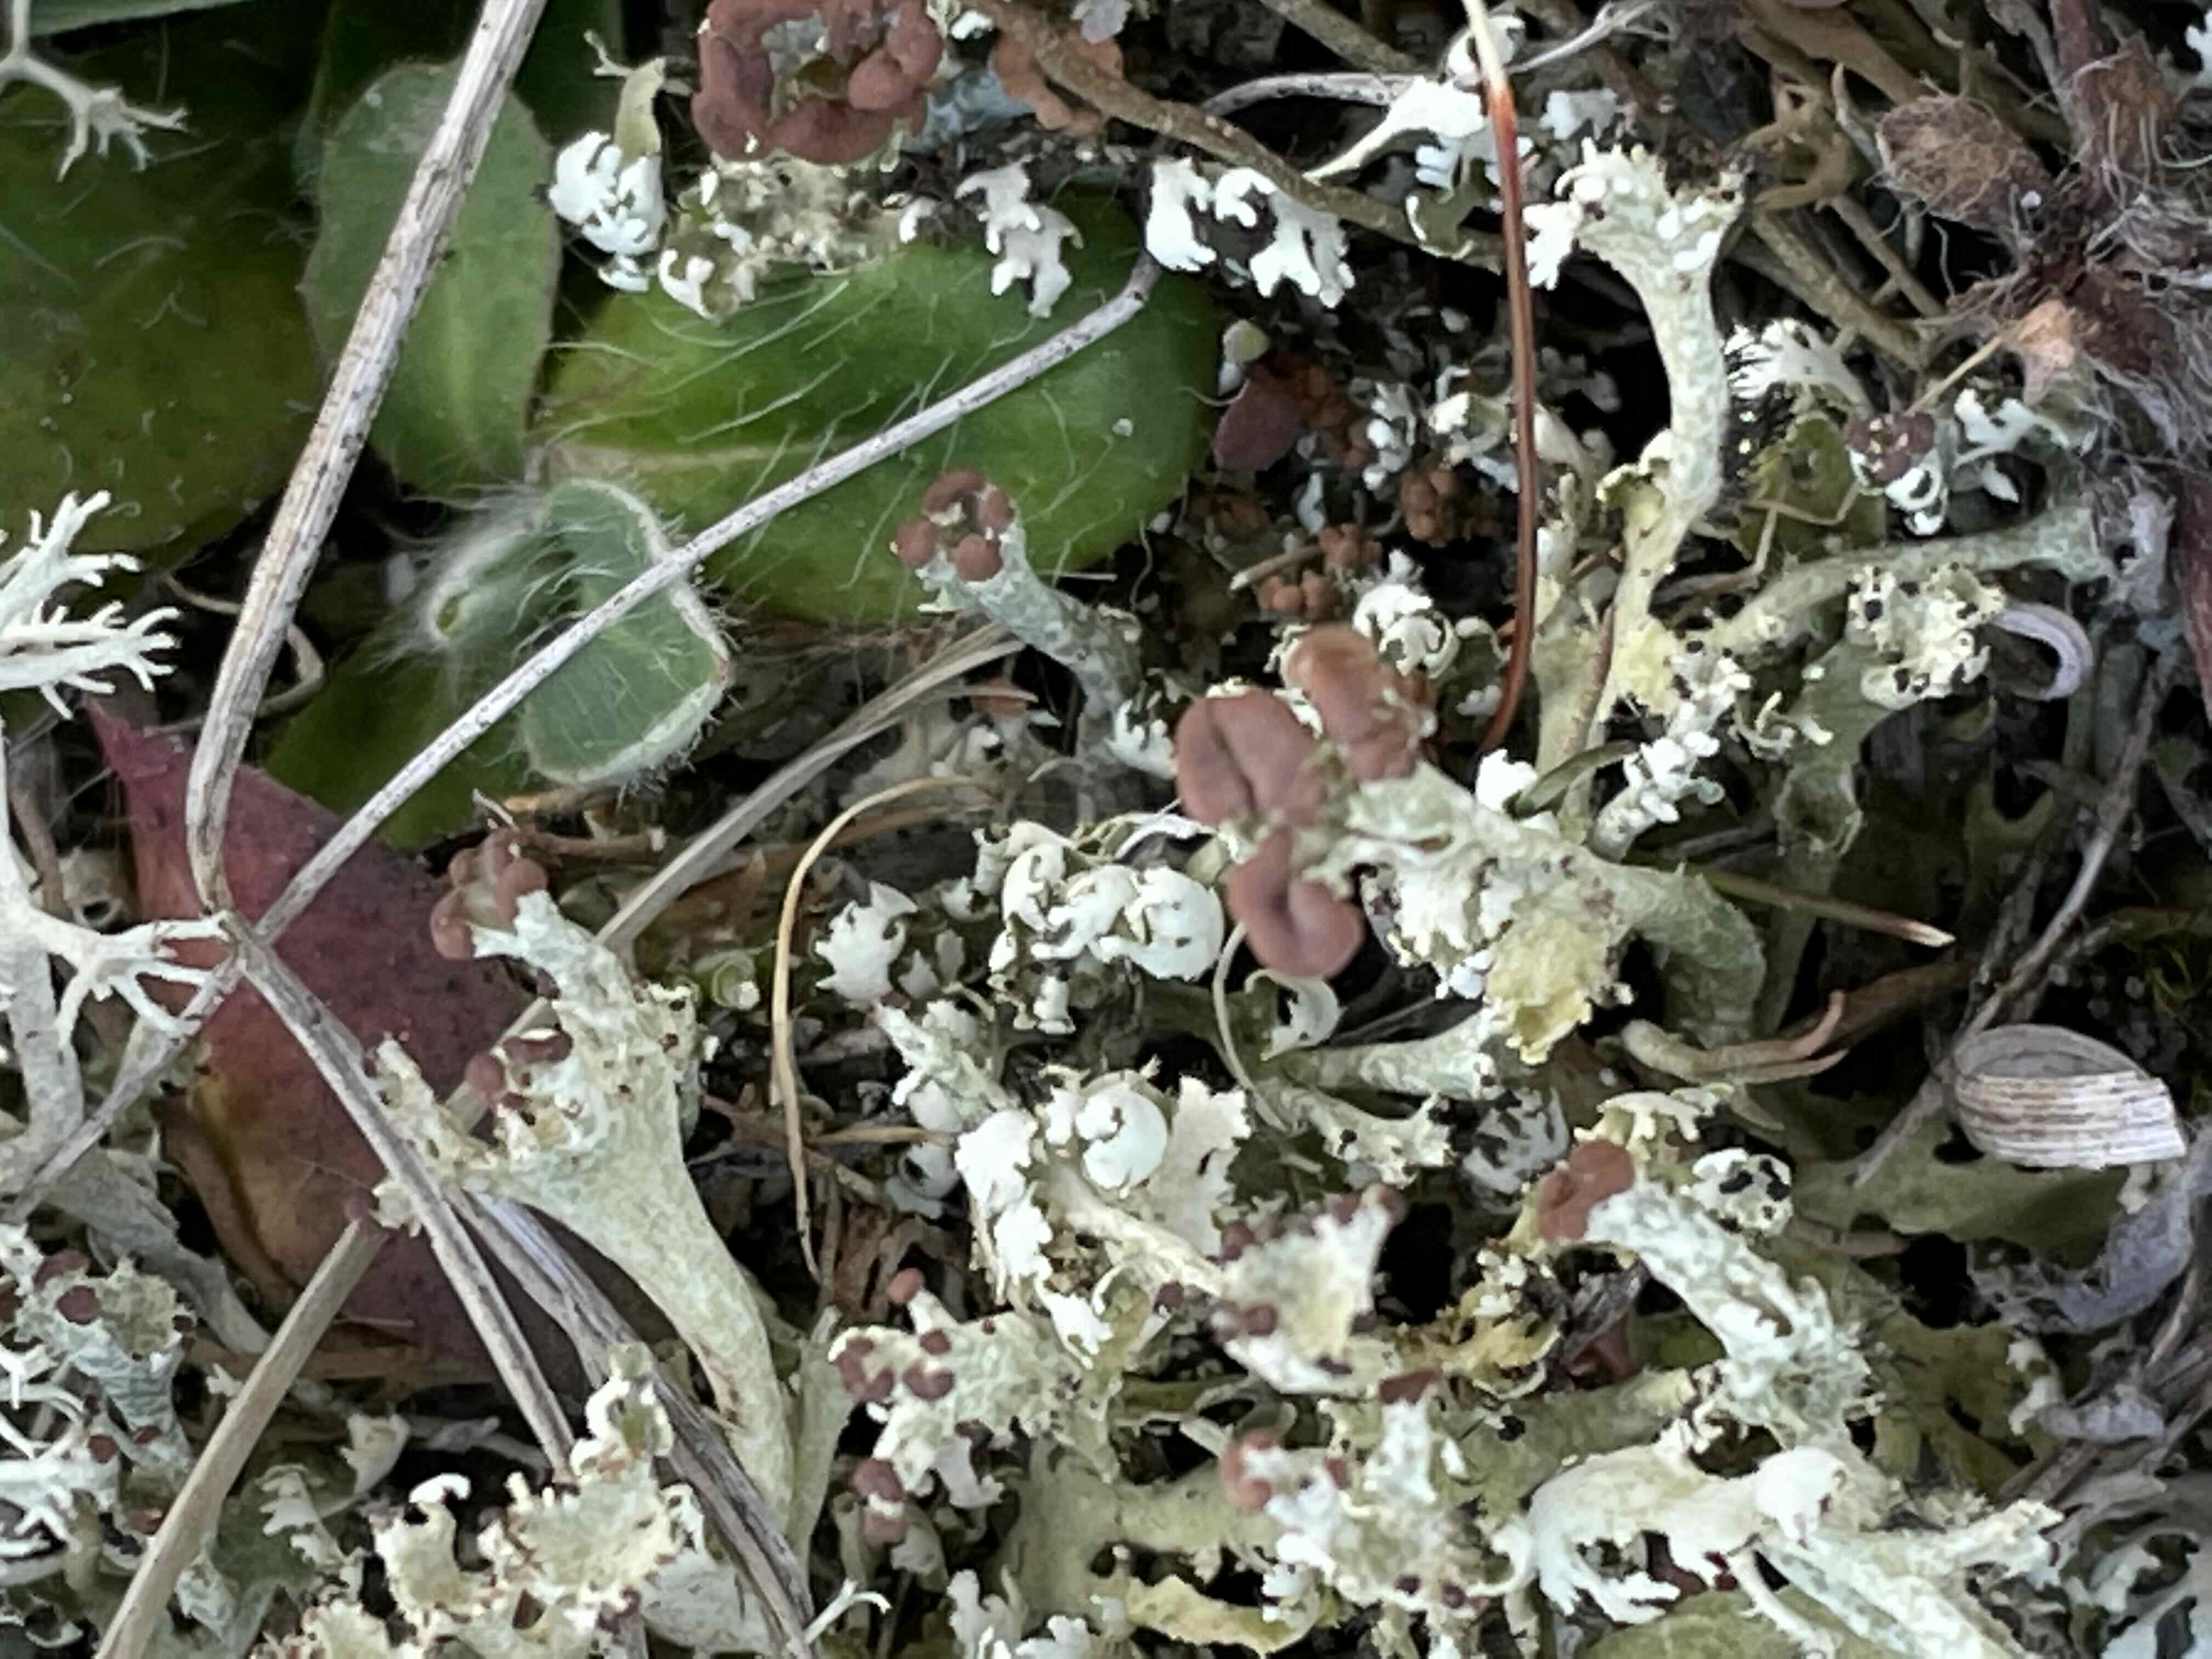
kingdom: Fungi
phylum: Ascomycota
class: Lecanoromycetes
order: Lecanorales
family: Cladoniaceae
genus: Cladonia
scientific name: Cladonia foliacea
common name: fliget bægerlav
